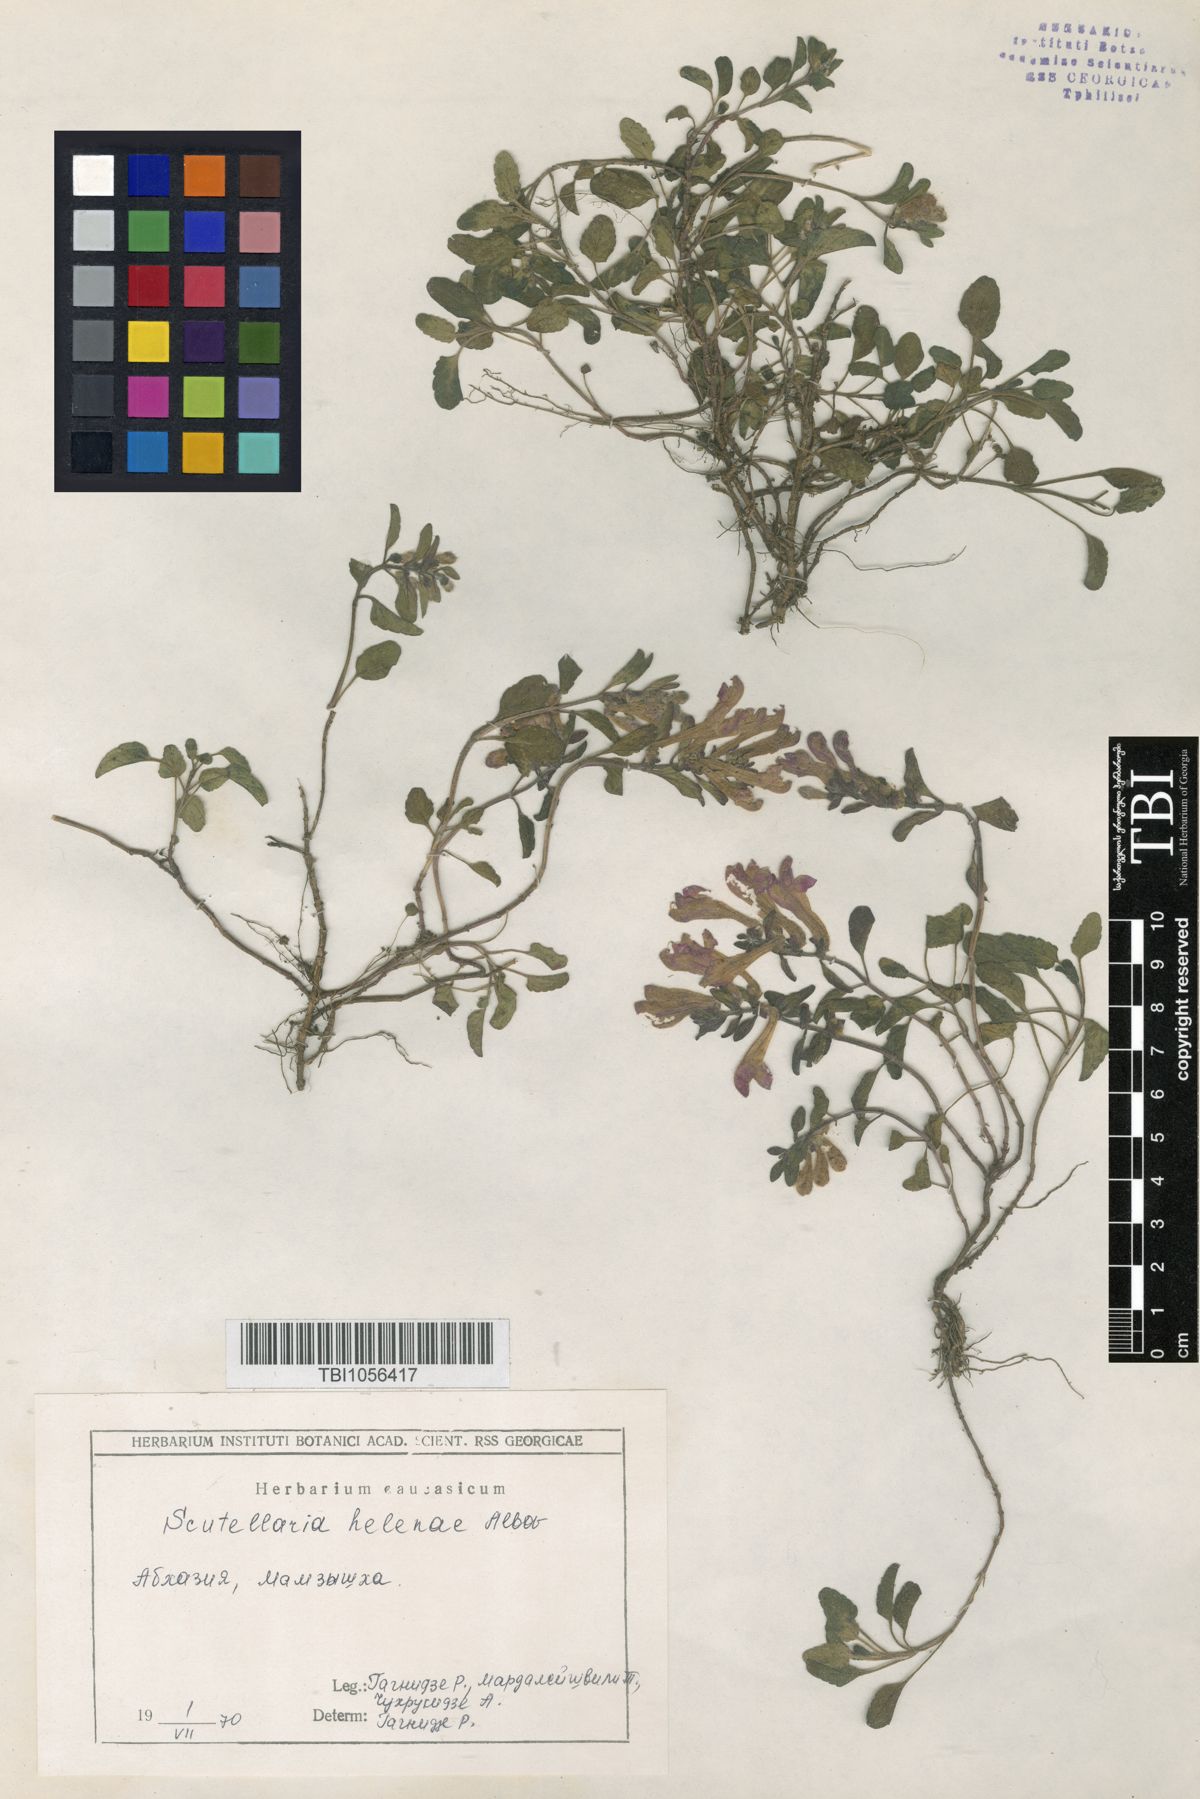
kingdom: Plantae
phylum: Tracheophyta
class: Magnoliopsida
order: Lamiales
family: Lamiaceae
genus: Scutellaria
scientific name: Scutellaria helenae
